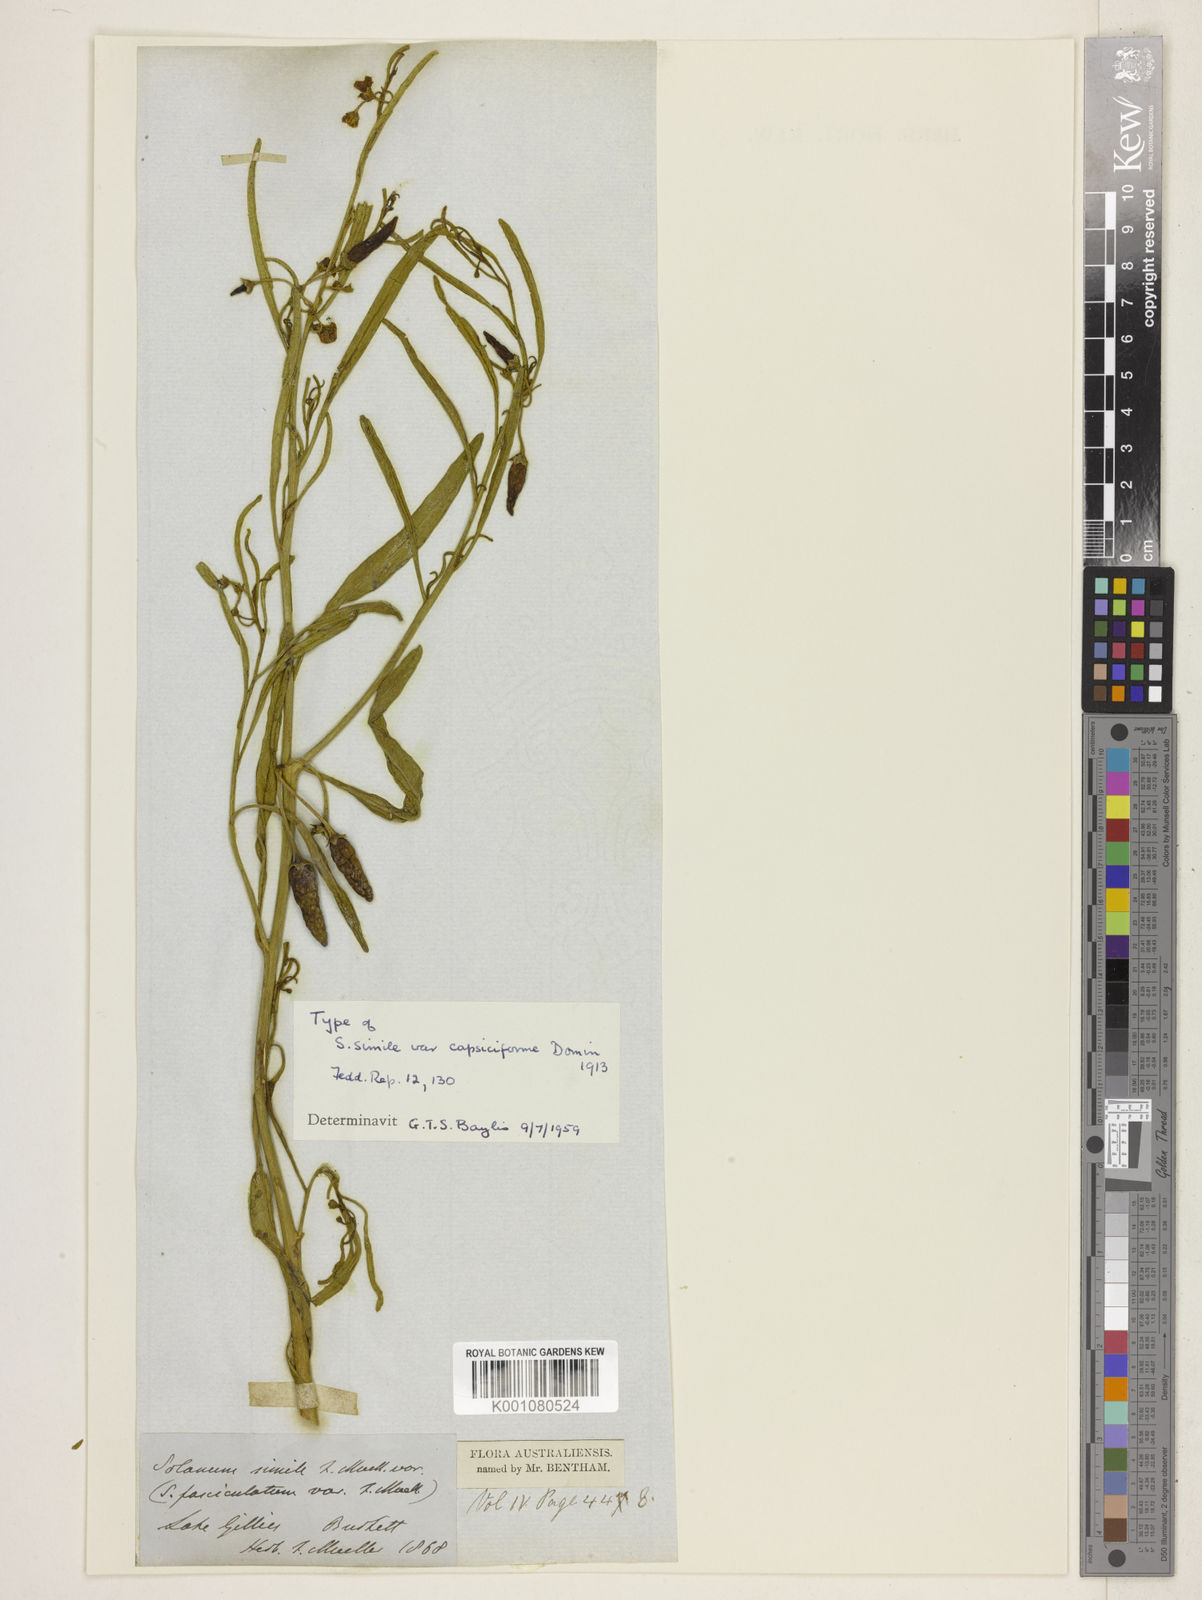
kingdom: Plantae
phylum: Tracheophyta
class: Magnoliopsida
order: Solanales
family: Solanaceae
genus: Solanum
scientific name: Solanum
